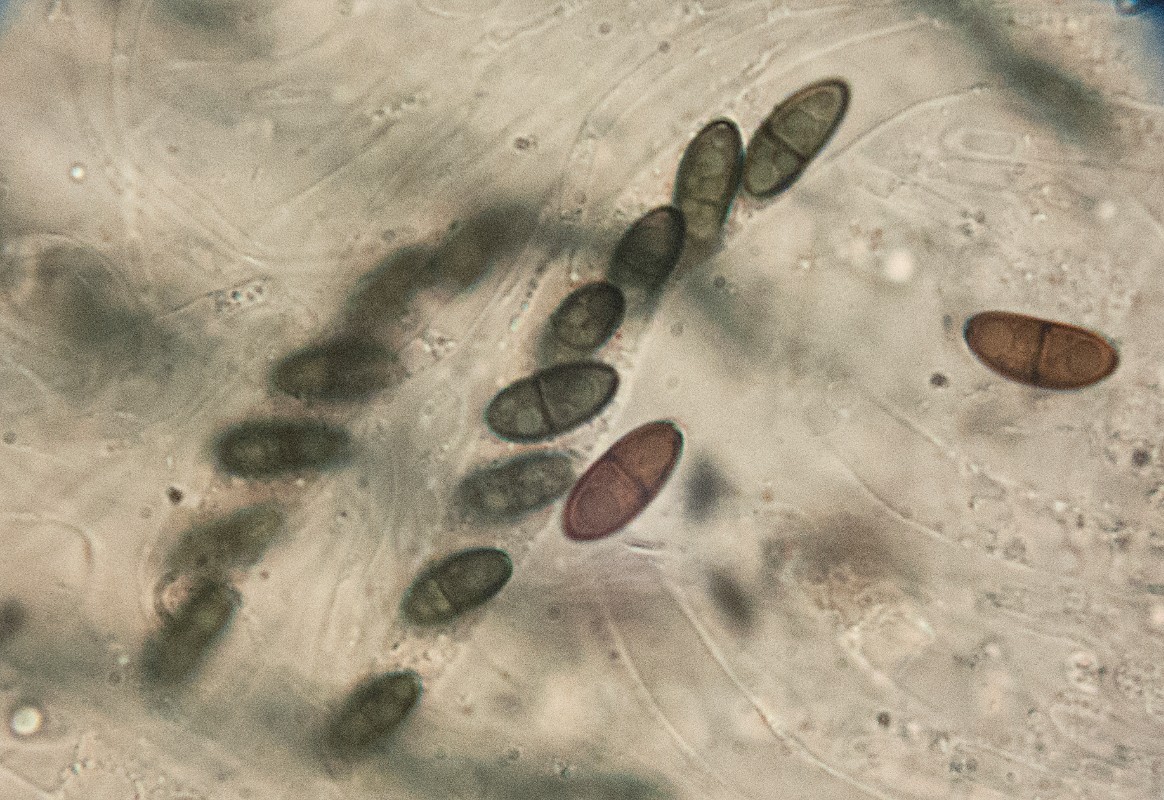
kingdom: Fungi
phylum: Ascomycota
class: Sordariomycetes
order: Boliniales
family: Boliniaceae
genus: Pseudovalsaria
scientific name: Pseudovalsaria ferruginea
